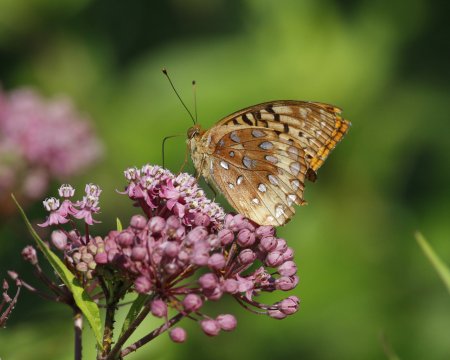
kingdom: Animalia
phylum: Arthropoda
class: Insecta
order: Lepidoptera
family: Nymphalidae
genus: Speyeria
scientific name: Speyeria cybele
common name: Great Spangled Fritillary
